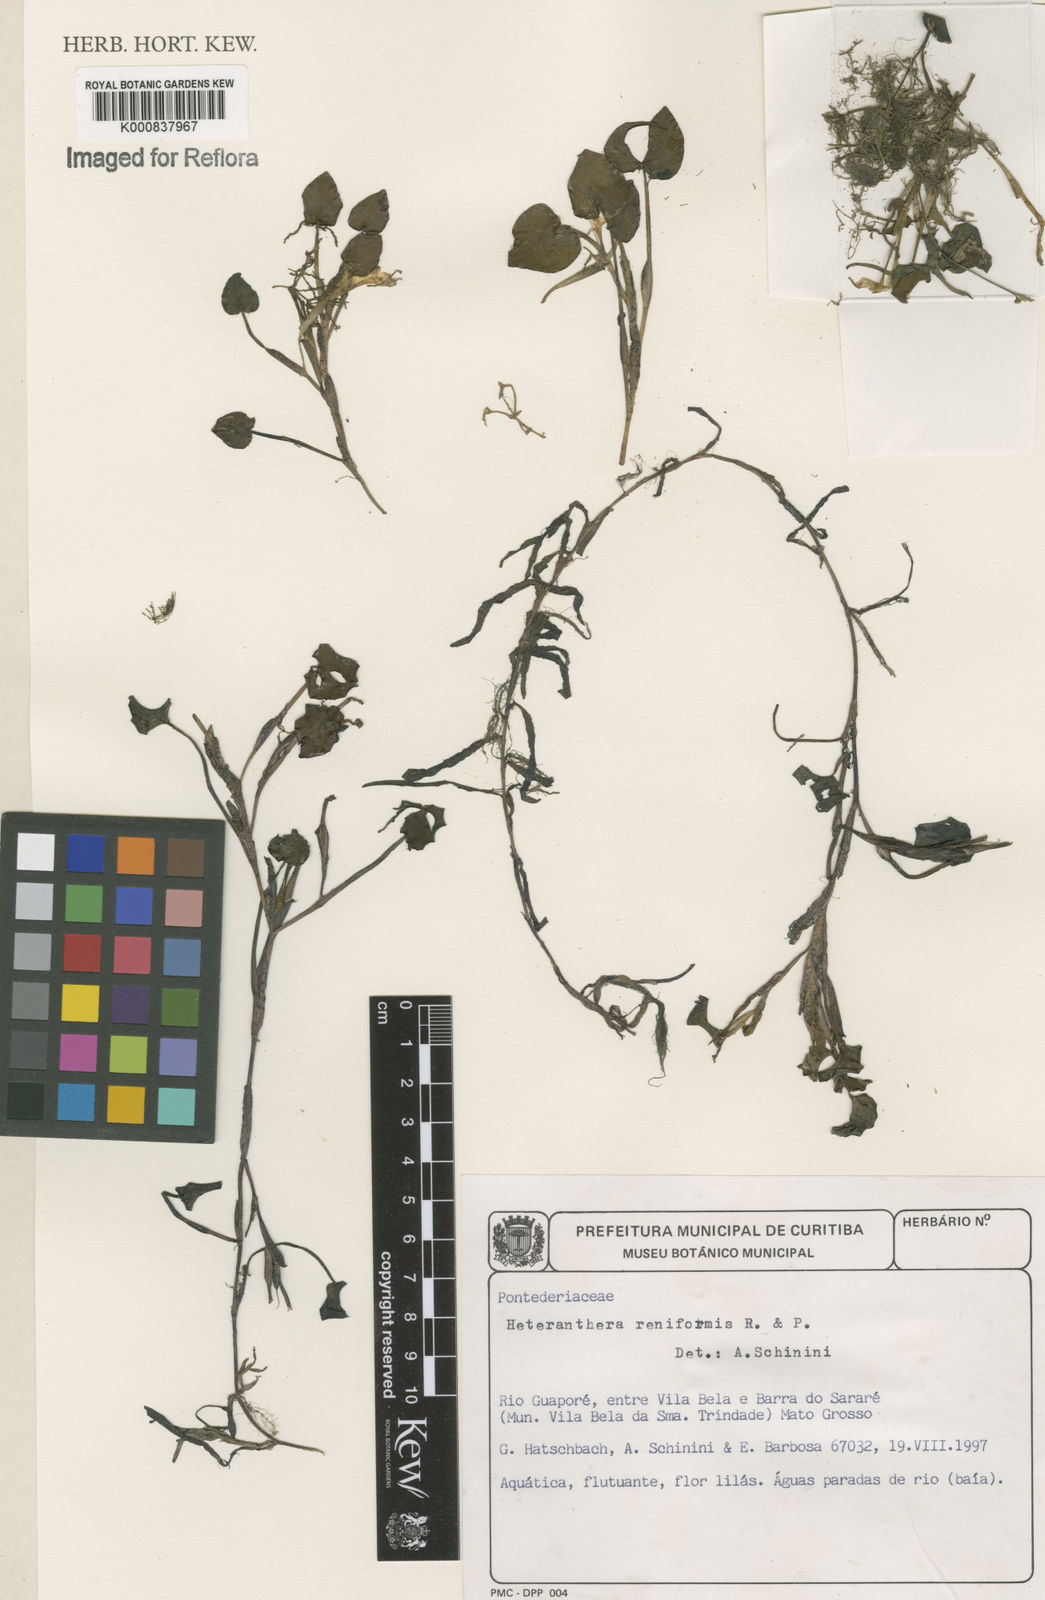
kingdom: Plantae
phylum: Tracheophyta
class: Liliopsida
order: Commelinales
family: Pontederiaceae
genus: Pontederia
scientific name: Pontederia diversifolia
